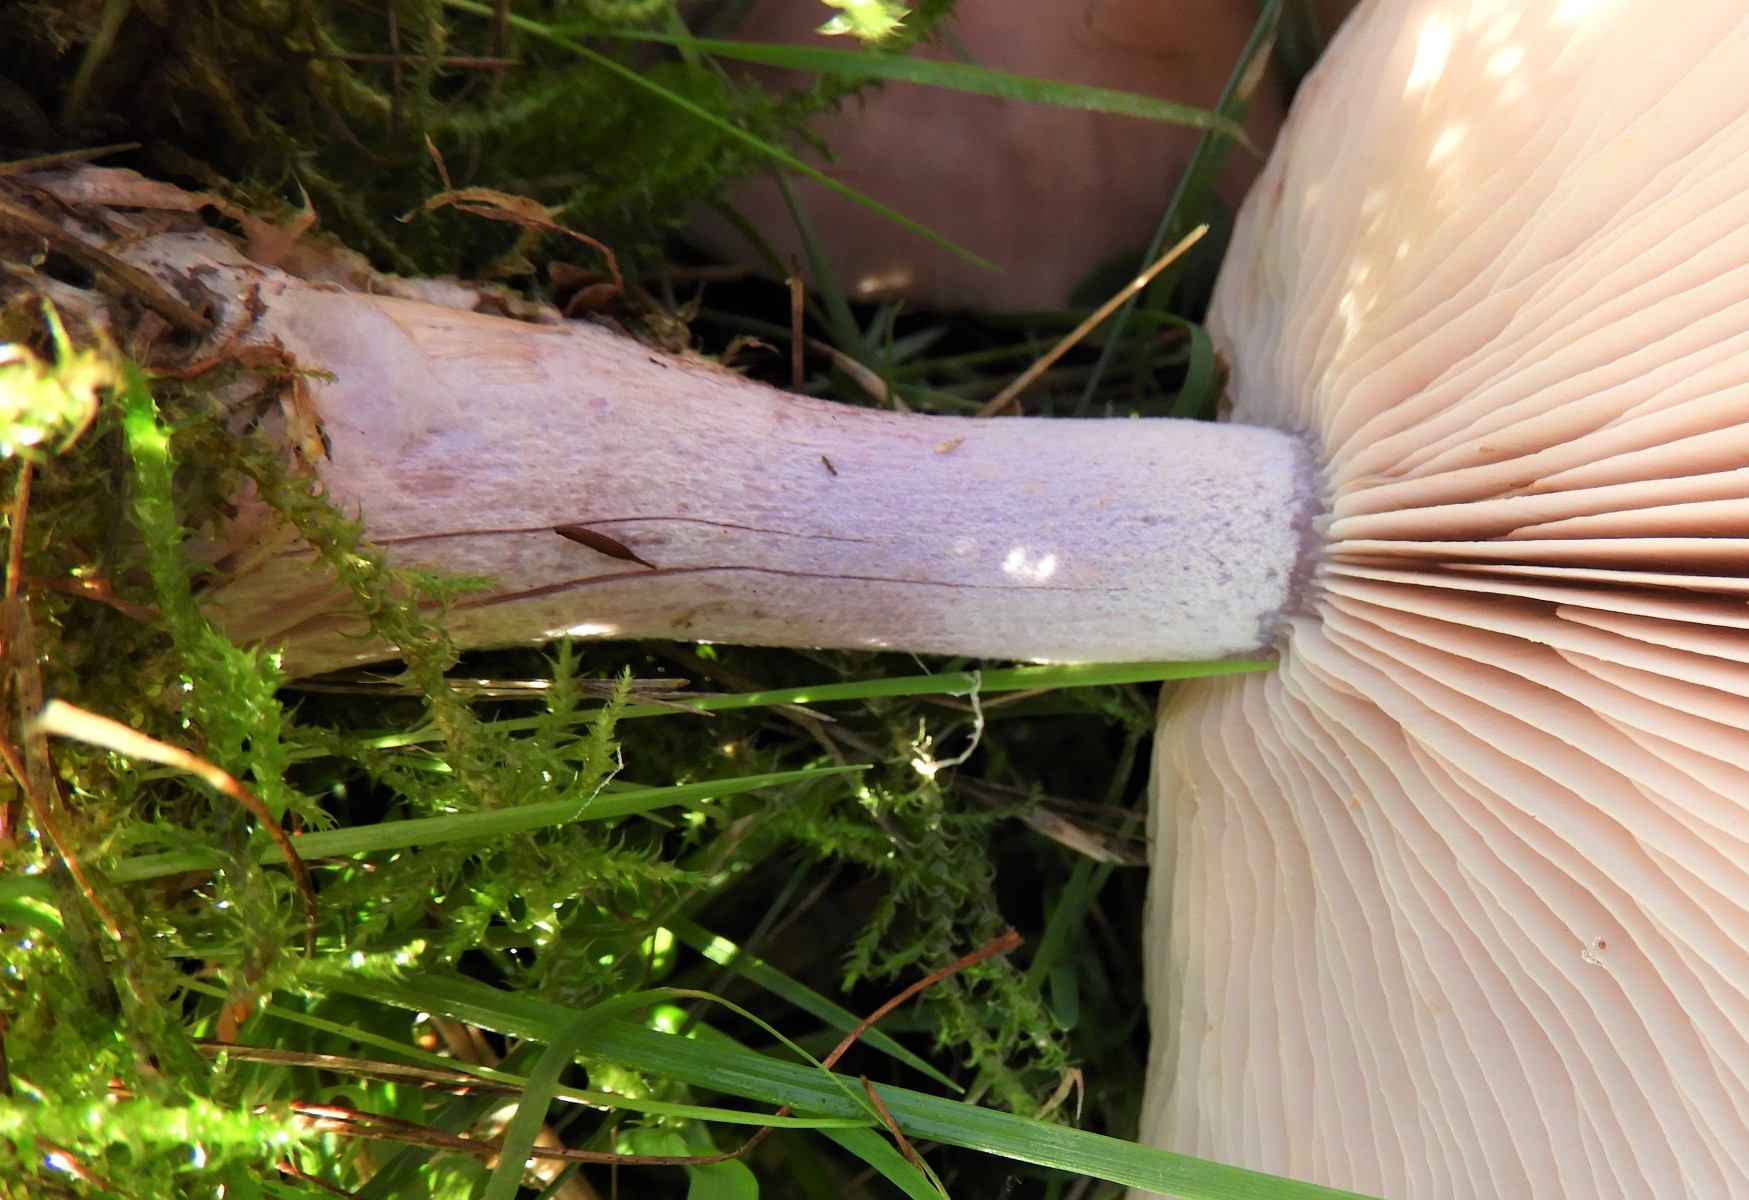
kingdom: Fungi
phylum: Basidiomycota
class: Agaricomycetes
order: Agaricales
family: Tricholomataceae
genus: Lepista
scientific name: Lepista personata
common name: bleg hekseringshat
